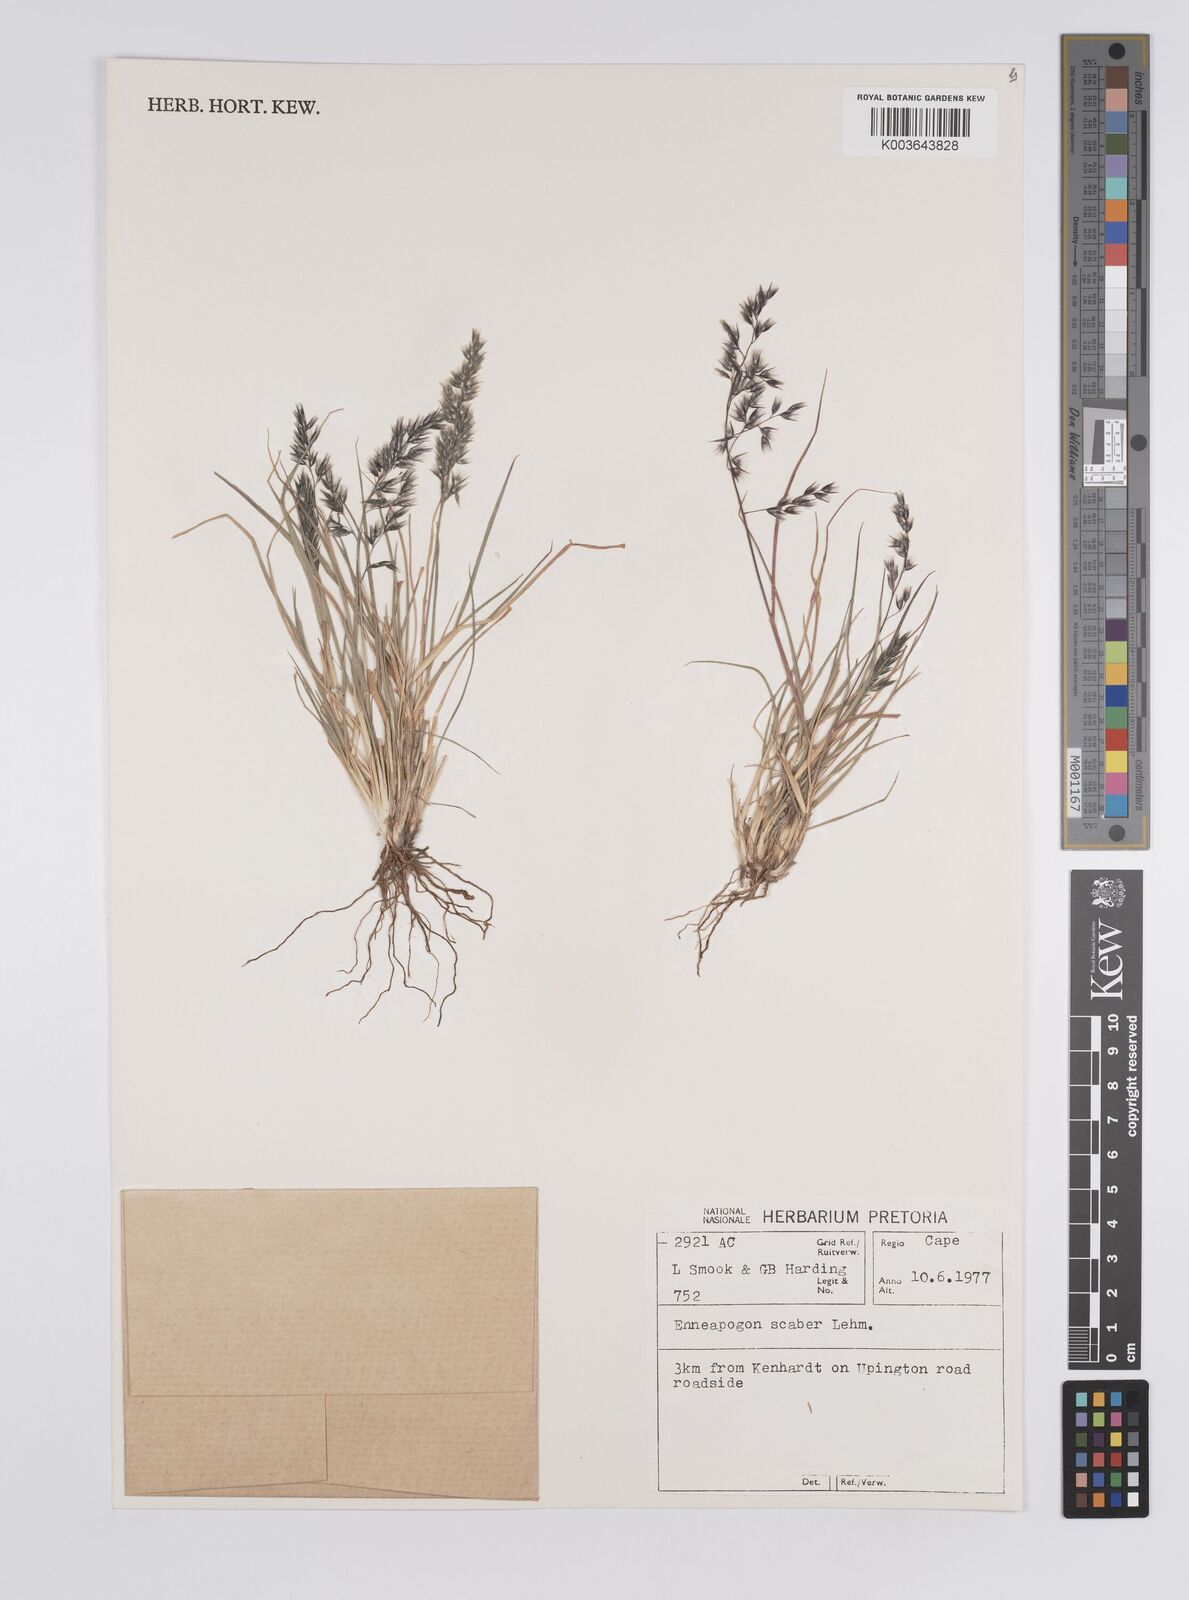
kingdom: Plantae
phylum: Tracheophyta
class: Liliopsida
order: Poales
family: Poaceae
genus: Enneapogon
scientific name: Enneapogon scaber
